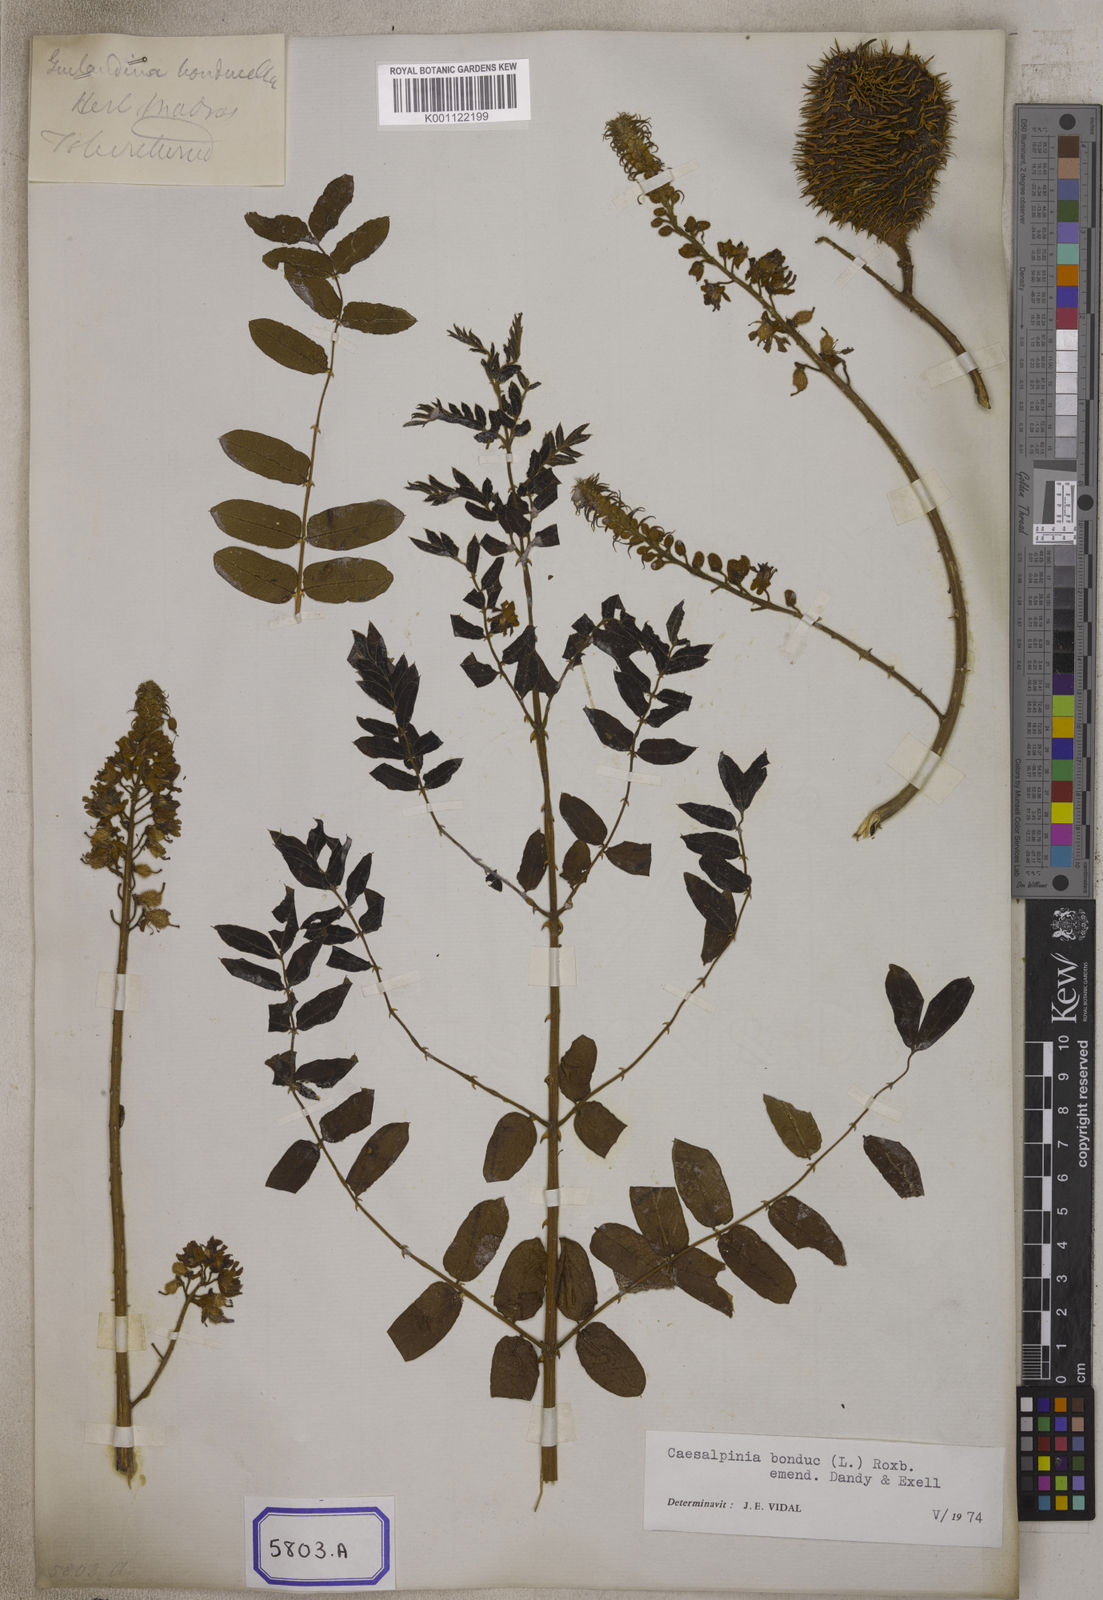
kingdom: Plantae
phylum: Tracheophyta
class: Magnoliopsida
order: Fabales
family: Fabaceae
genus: Guilandina
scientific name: Guilandina bonduc
